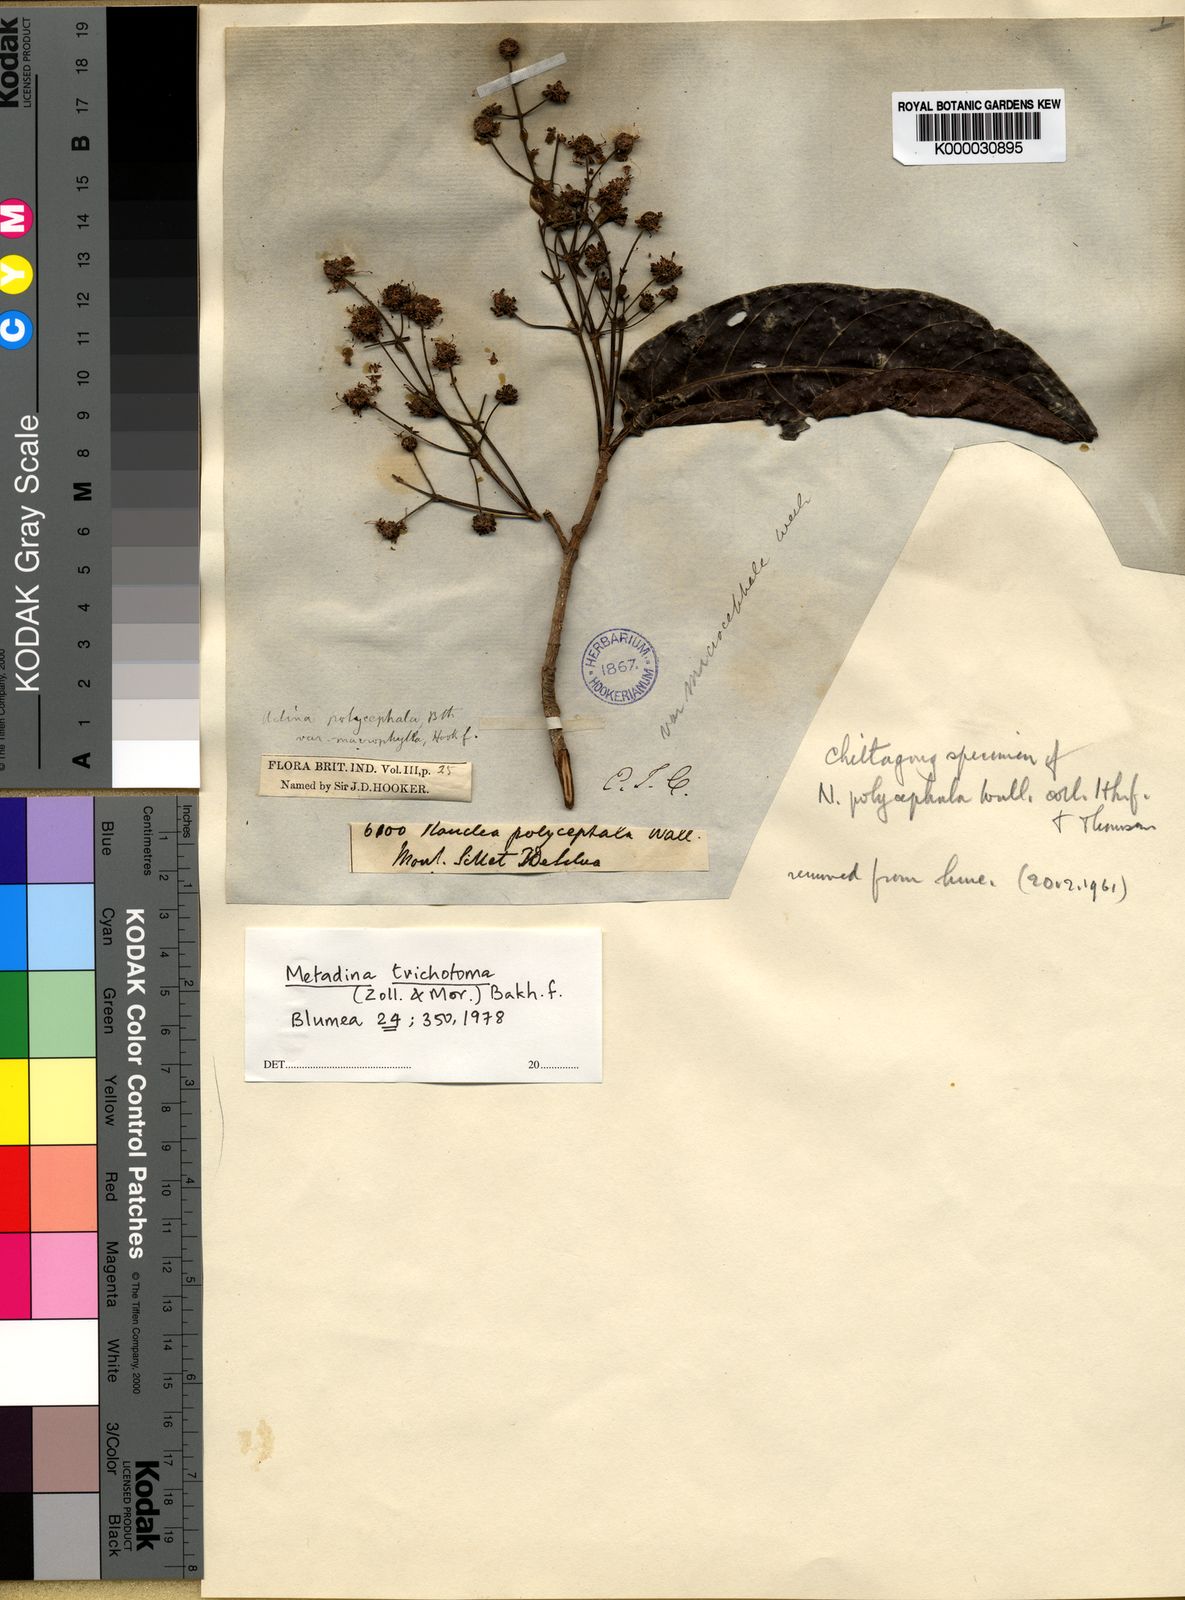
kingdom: Plantae
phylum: Tracheophyta
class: Magnoliopsida
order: Gentianales
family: Rubiaceae
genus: Adina
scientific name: Adina trichotoma
